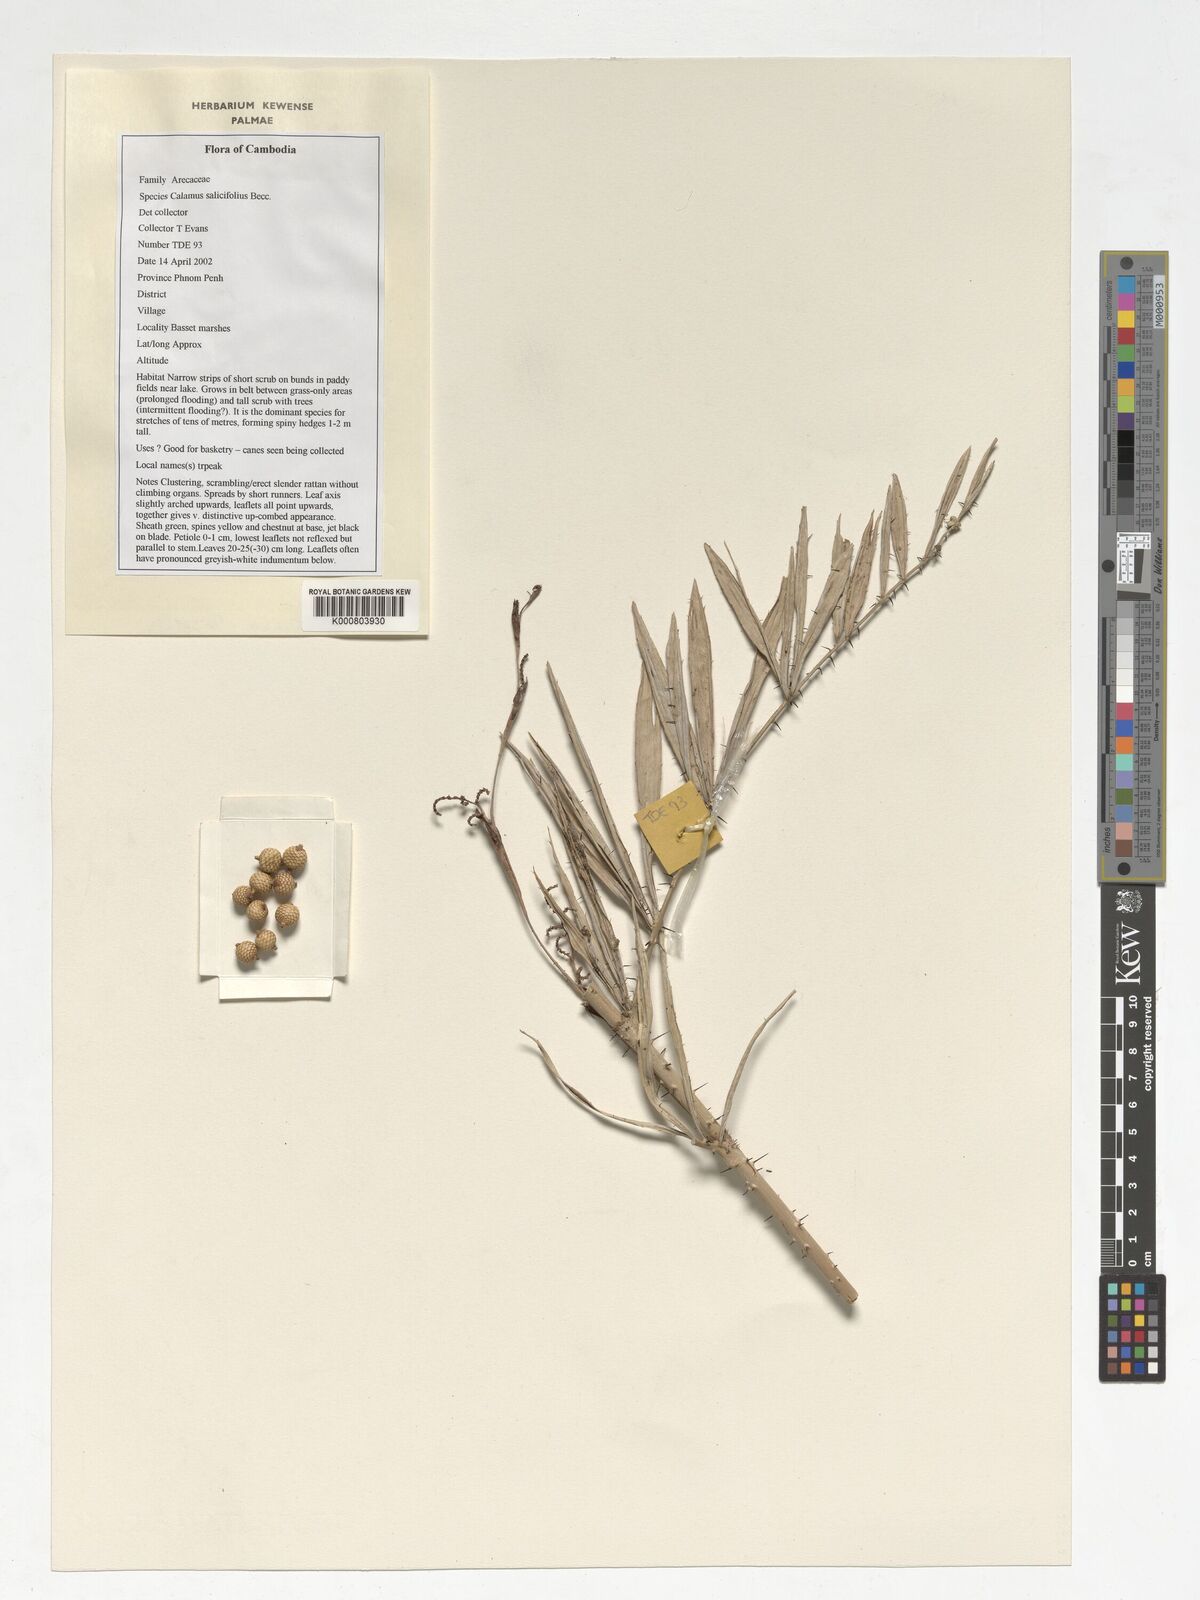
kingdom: Plantae
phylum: Tracheophyta
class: Liliopsida
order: Arecales
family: Arecaceae
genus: Calamus
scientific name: Calamus salicifolius
